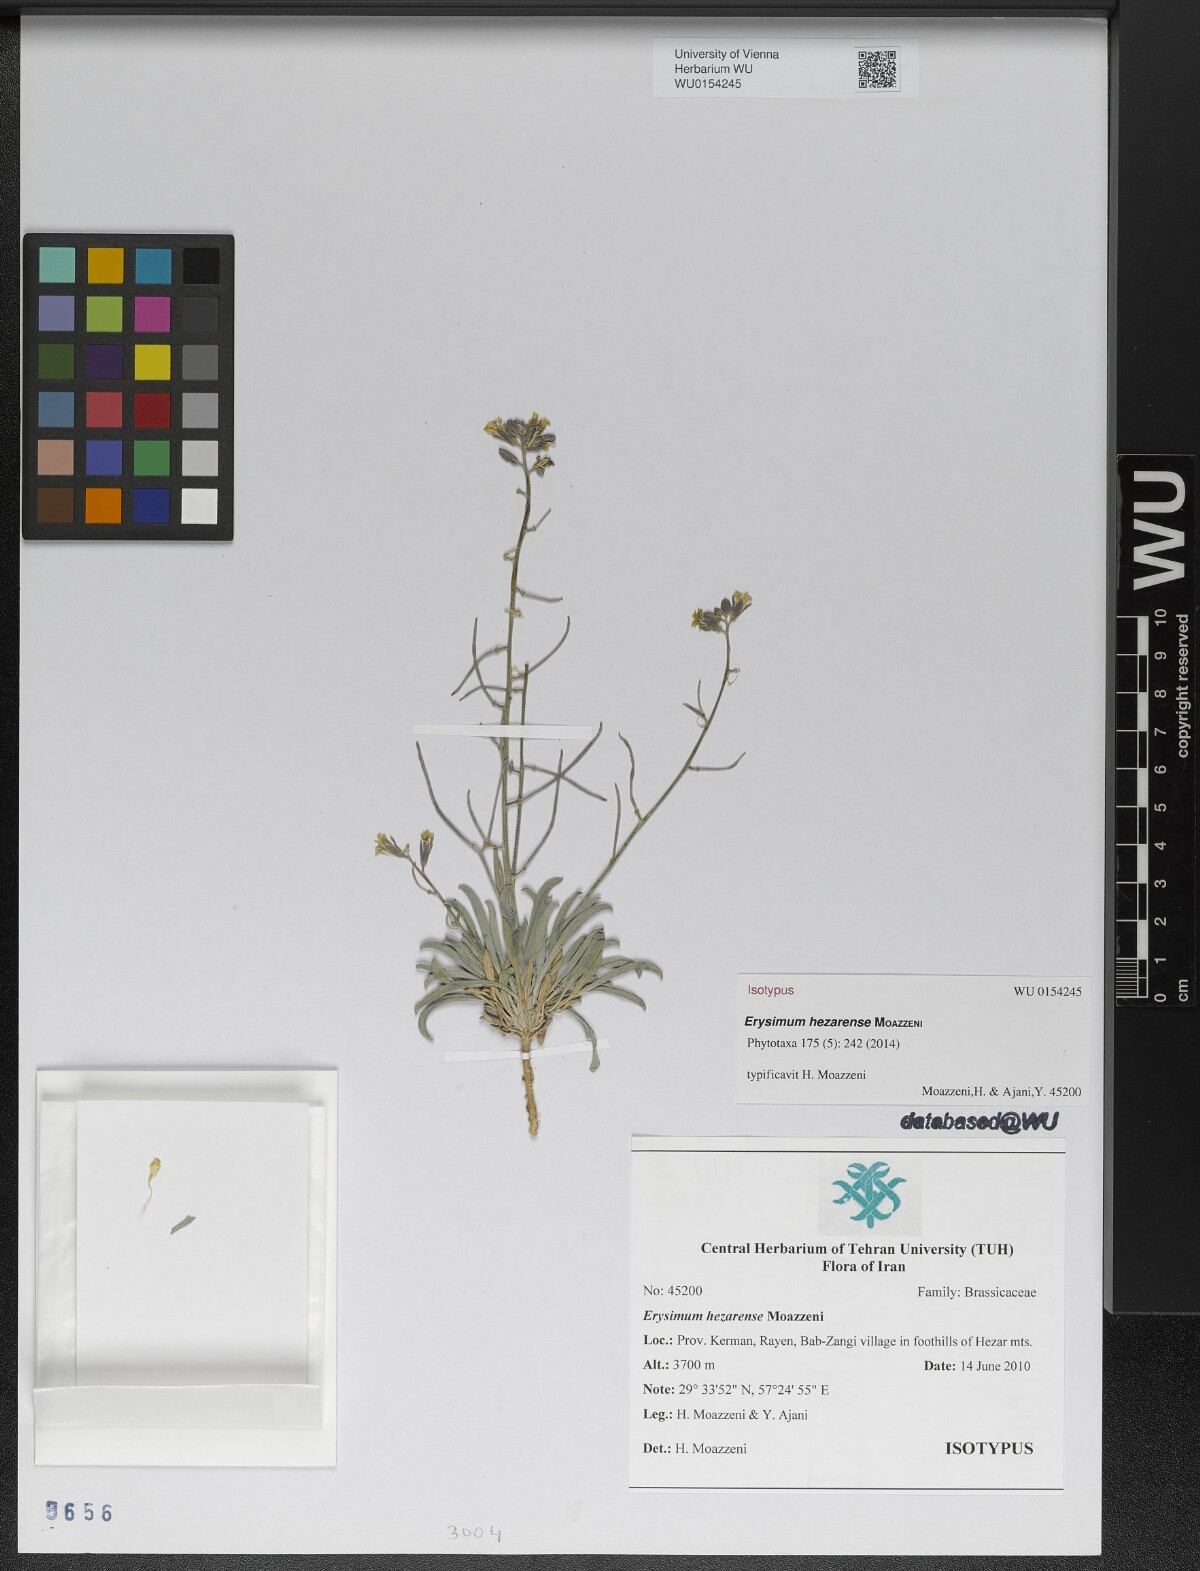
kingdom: Plantae
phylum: Tracheophyta
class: Magnoliopsida
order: Brassicales
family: Brassicaceae
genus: Erysimum
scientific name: Erysimum hezarense
